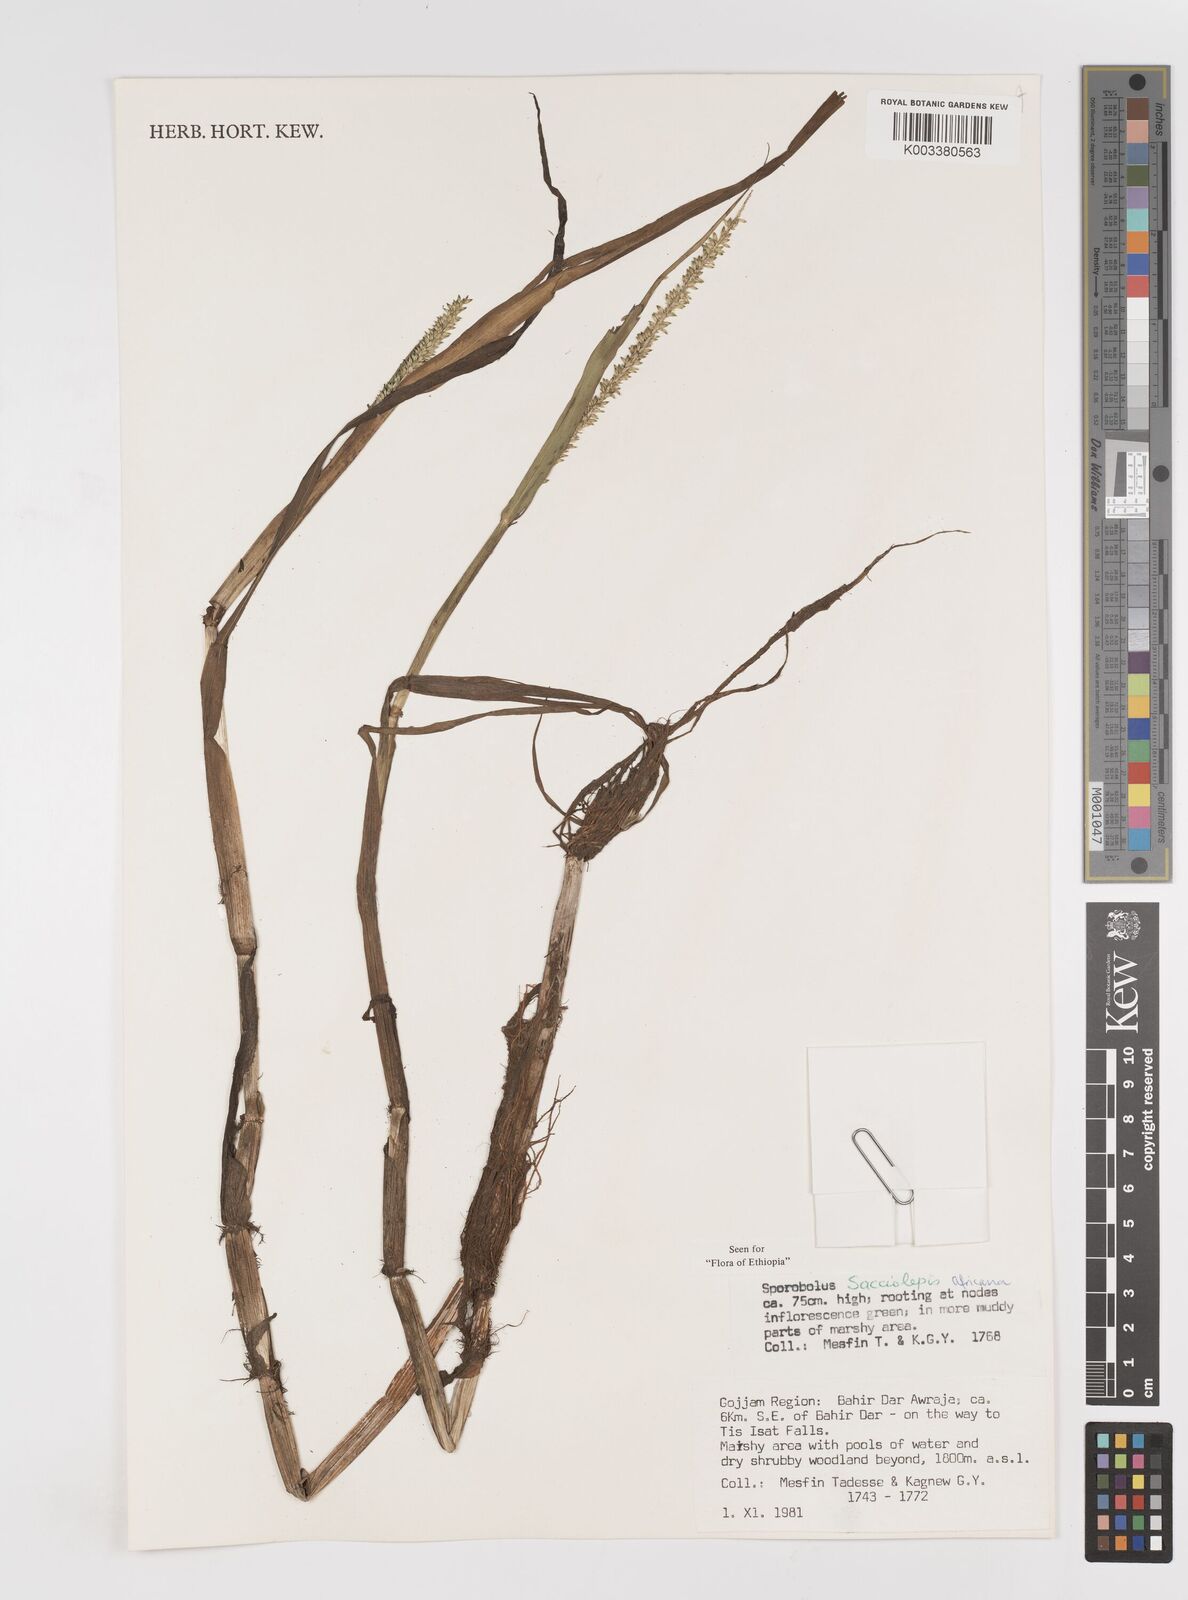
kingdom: Plantae
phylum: Tracheophyta
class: Liliopsida
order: Poales
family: Poaceae
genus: Sacciolepis
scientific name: Sacciolepis africana
